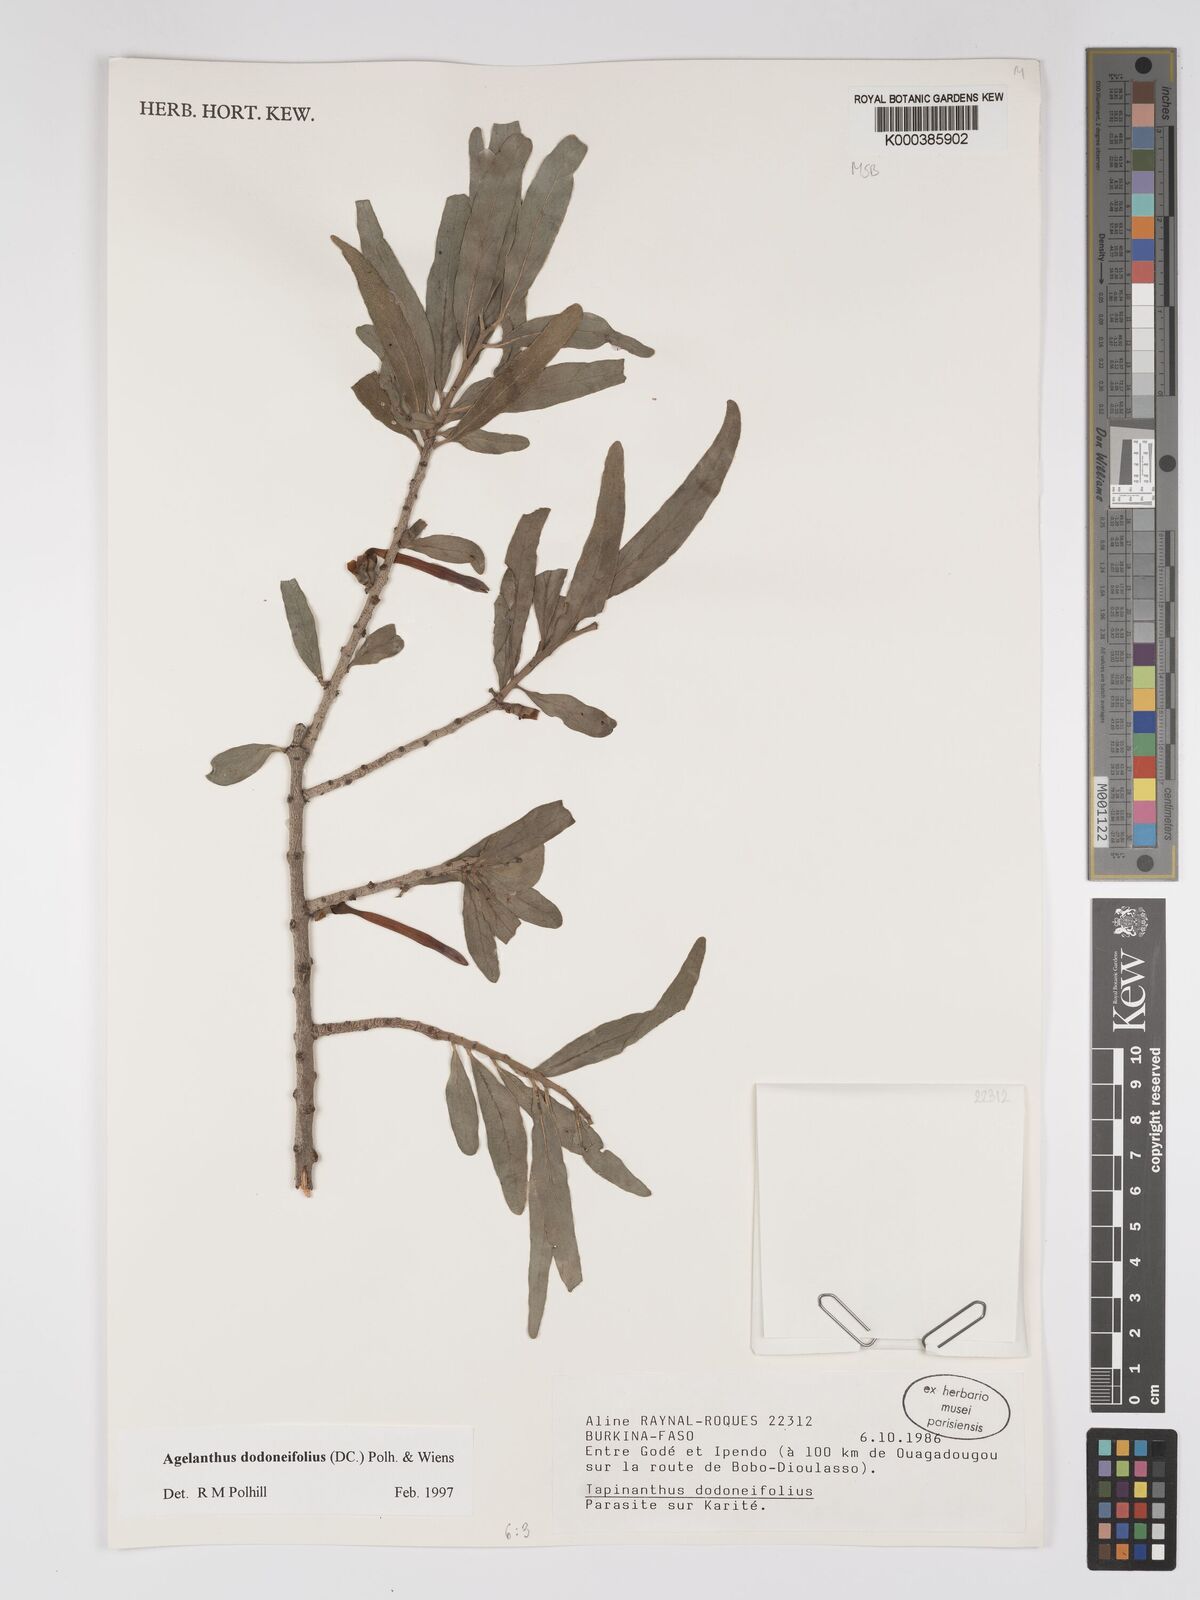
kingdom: Plantae
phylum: Tracheophyta
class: Magnoliopsida
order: Santalales
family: Loranthaceae
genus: Agelanthus
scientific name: Agelanthus dodoneifolius
